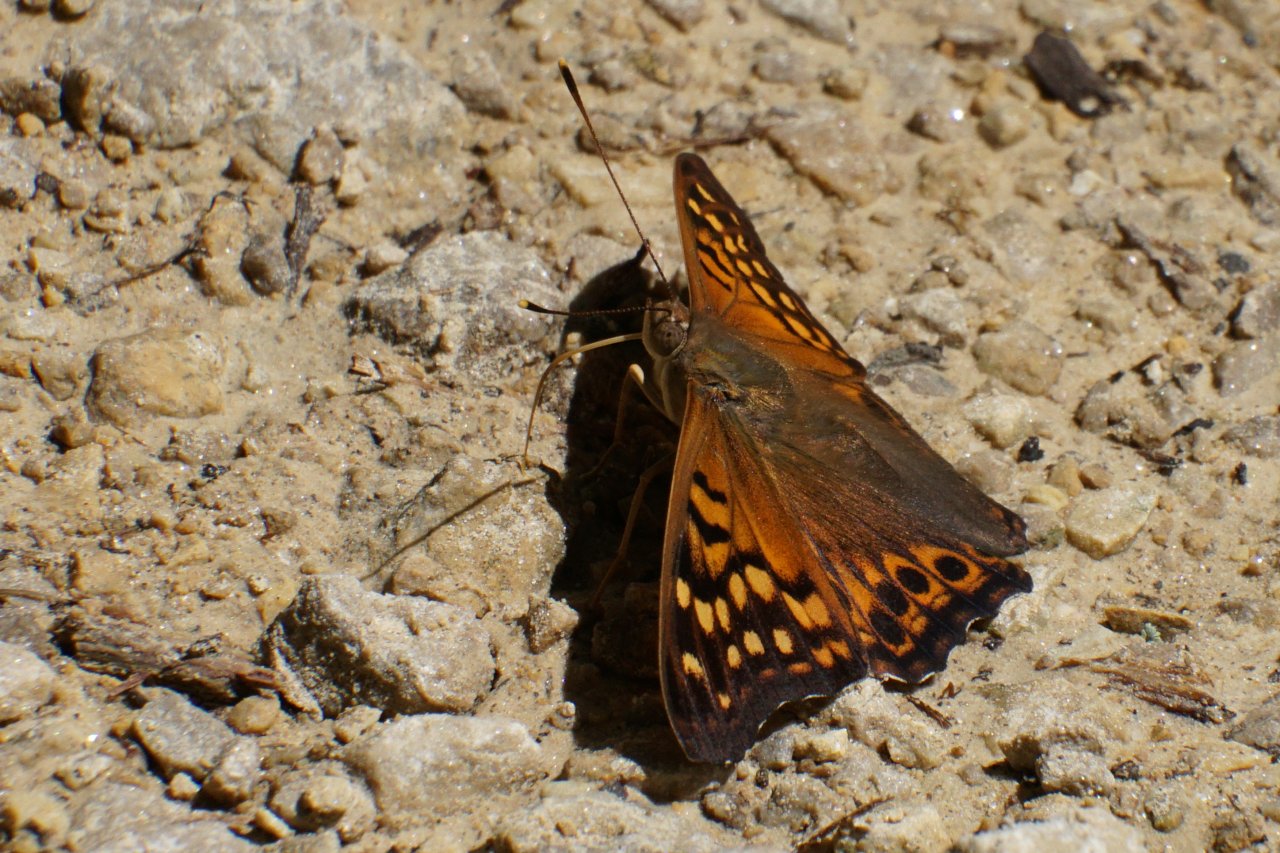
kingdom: Animalia
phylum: Arthropoda
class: Insecta
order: Lepidoptera
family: Nymphalidae
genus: Asterocampa
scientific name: Asterocampa clyton
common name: Tawny Emperor
